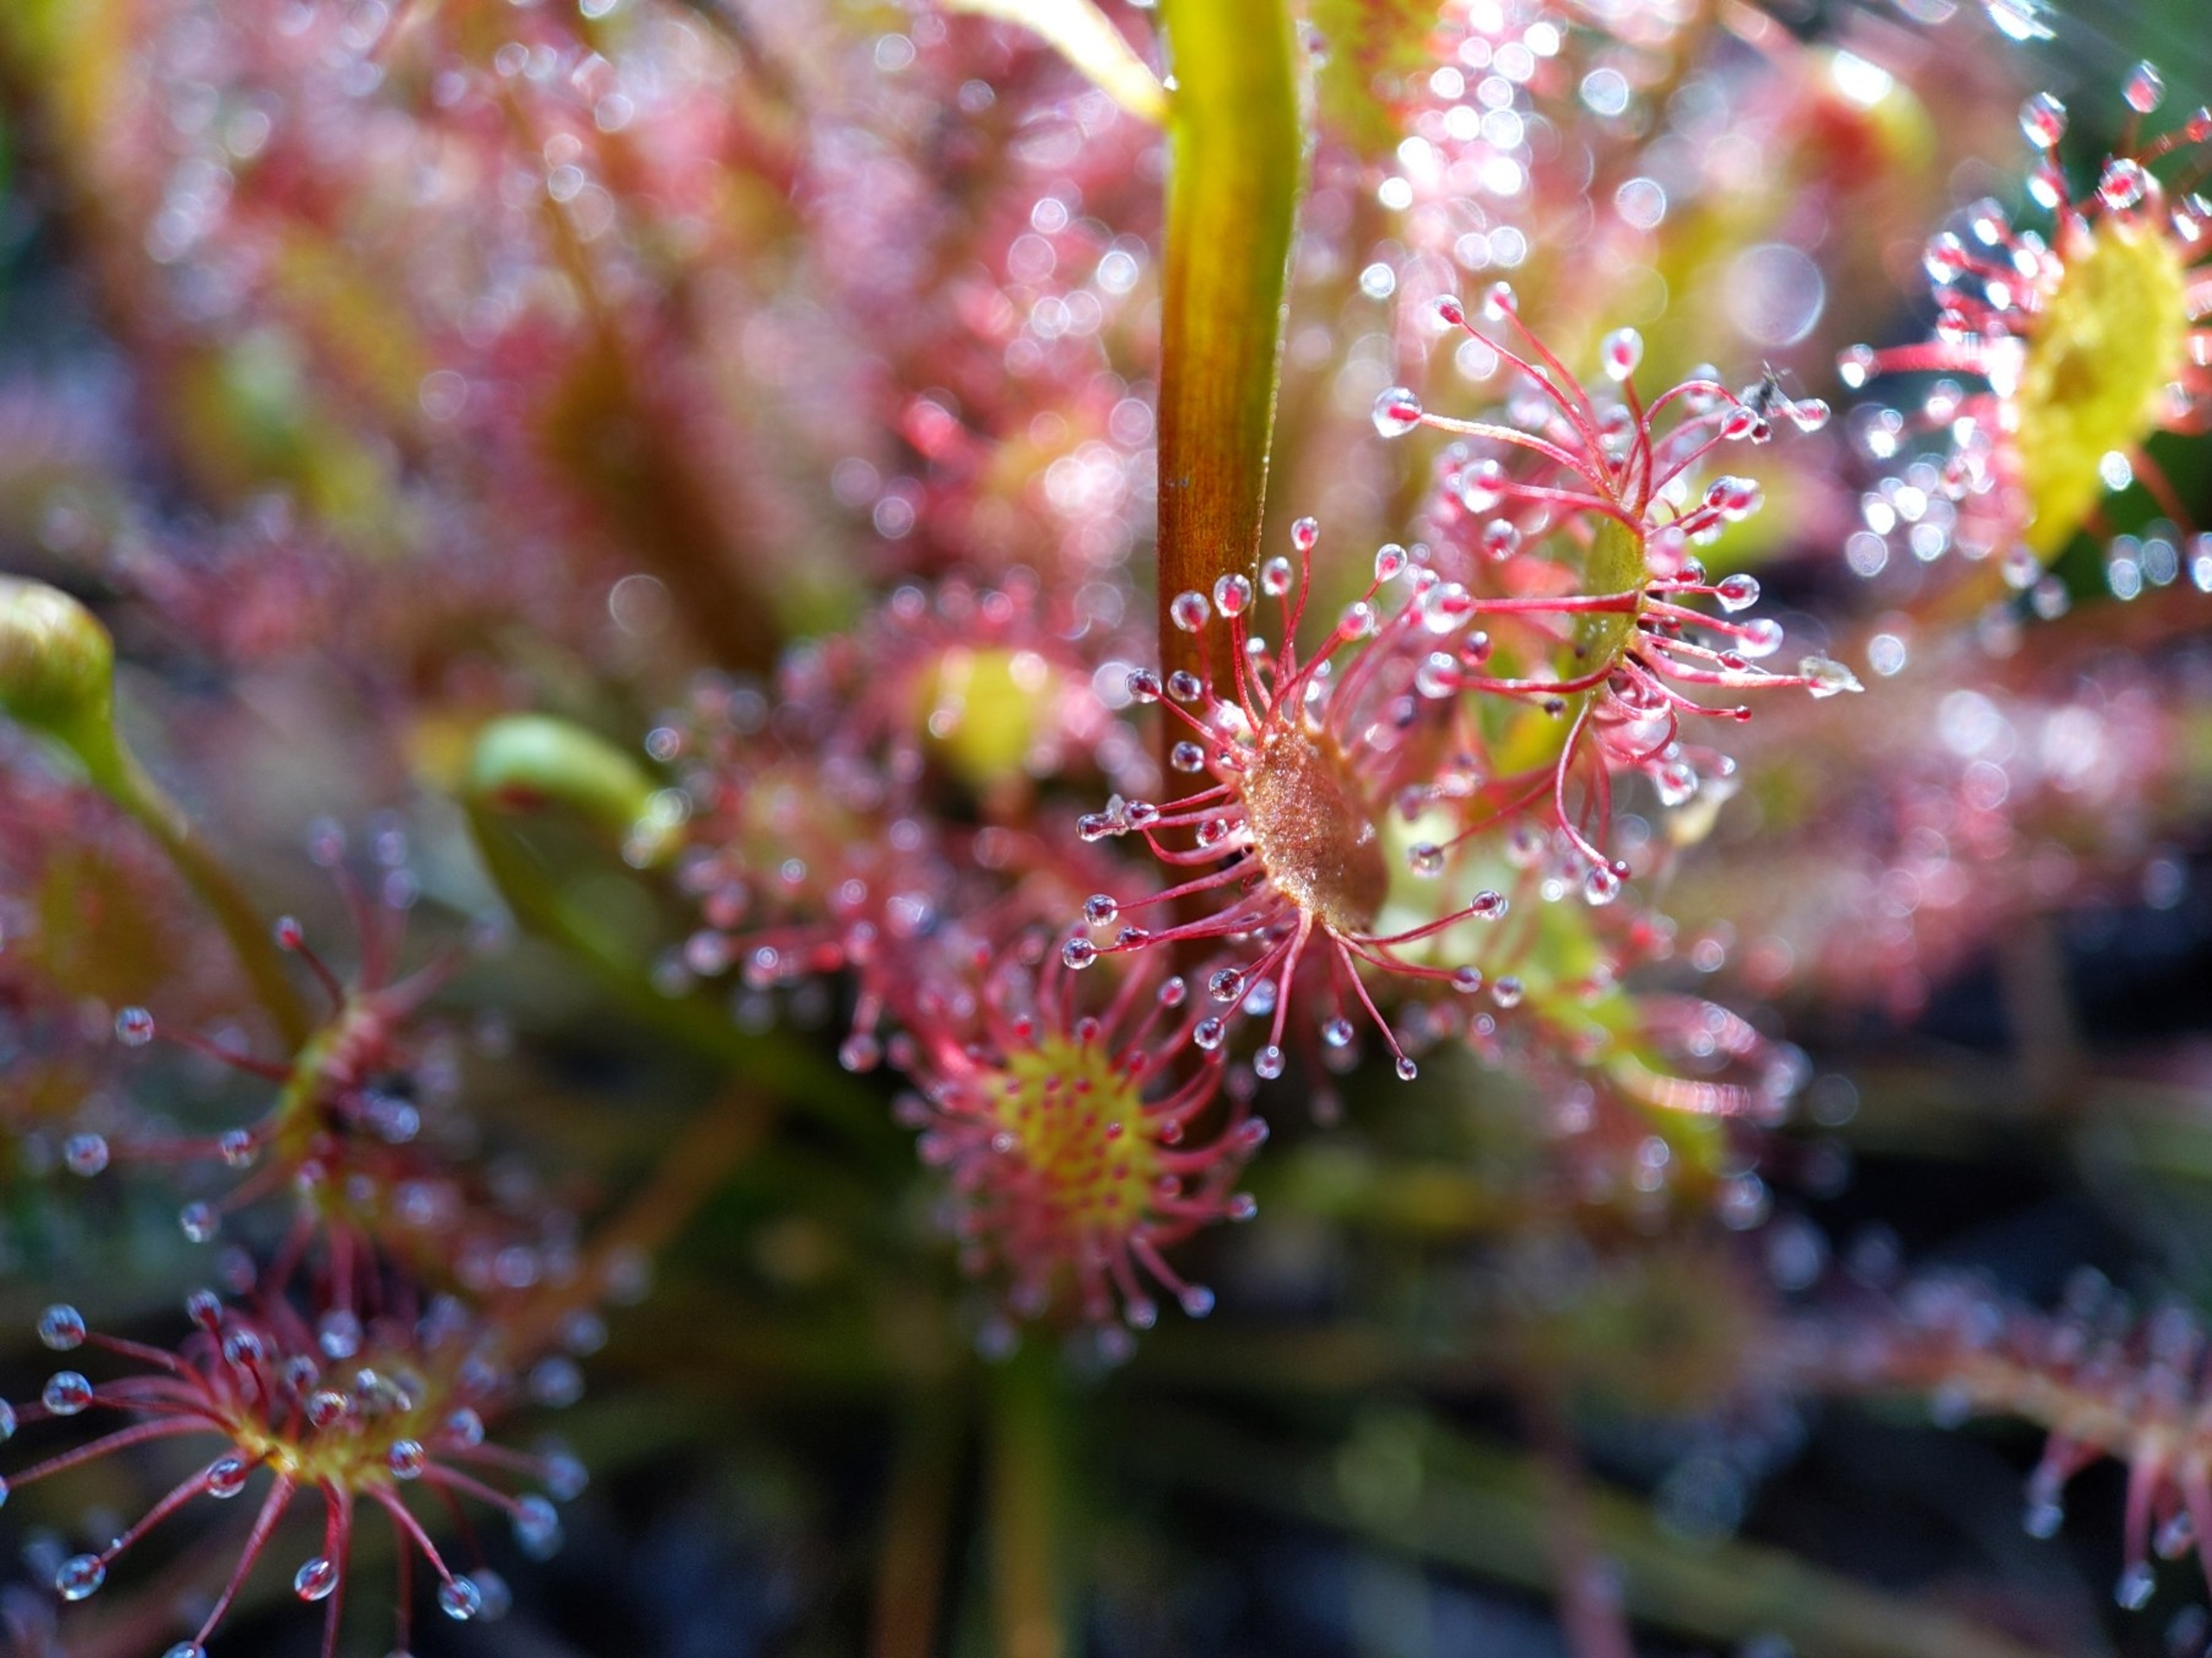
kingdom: Plantae
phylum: Tracheophyta
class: Magnoliopsida
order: Caryophyllales
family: Droseraceae
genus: Drosera
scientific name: Drosera intermedia
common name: Liden soldug
